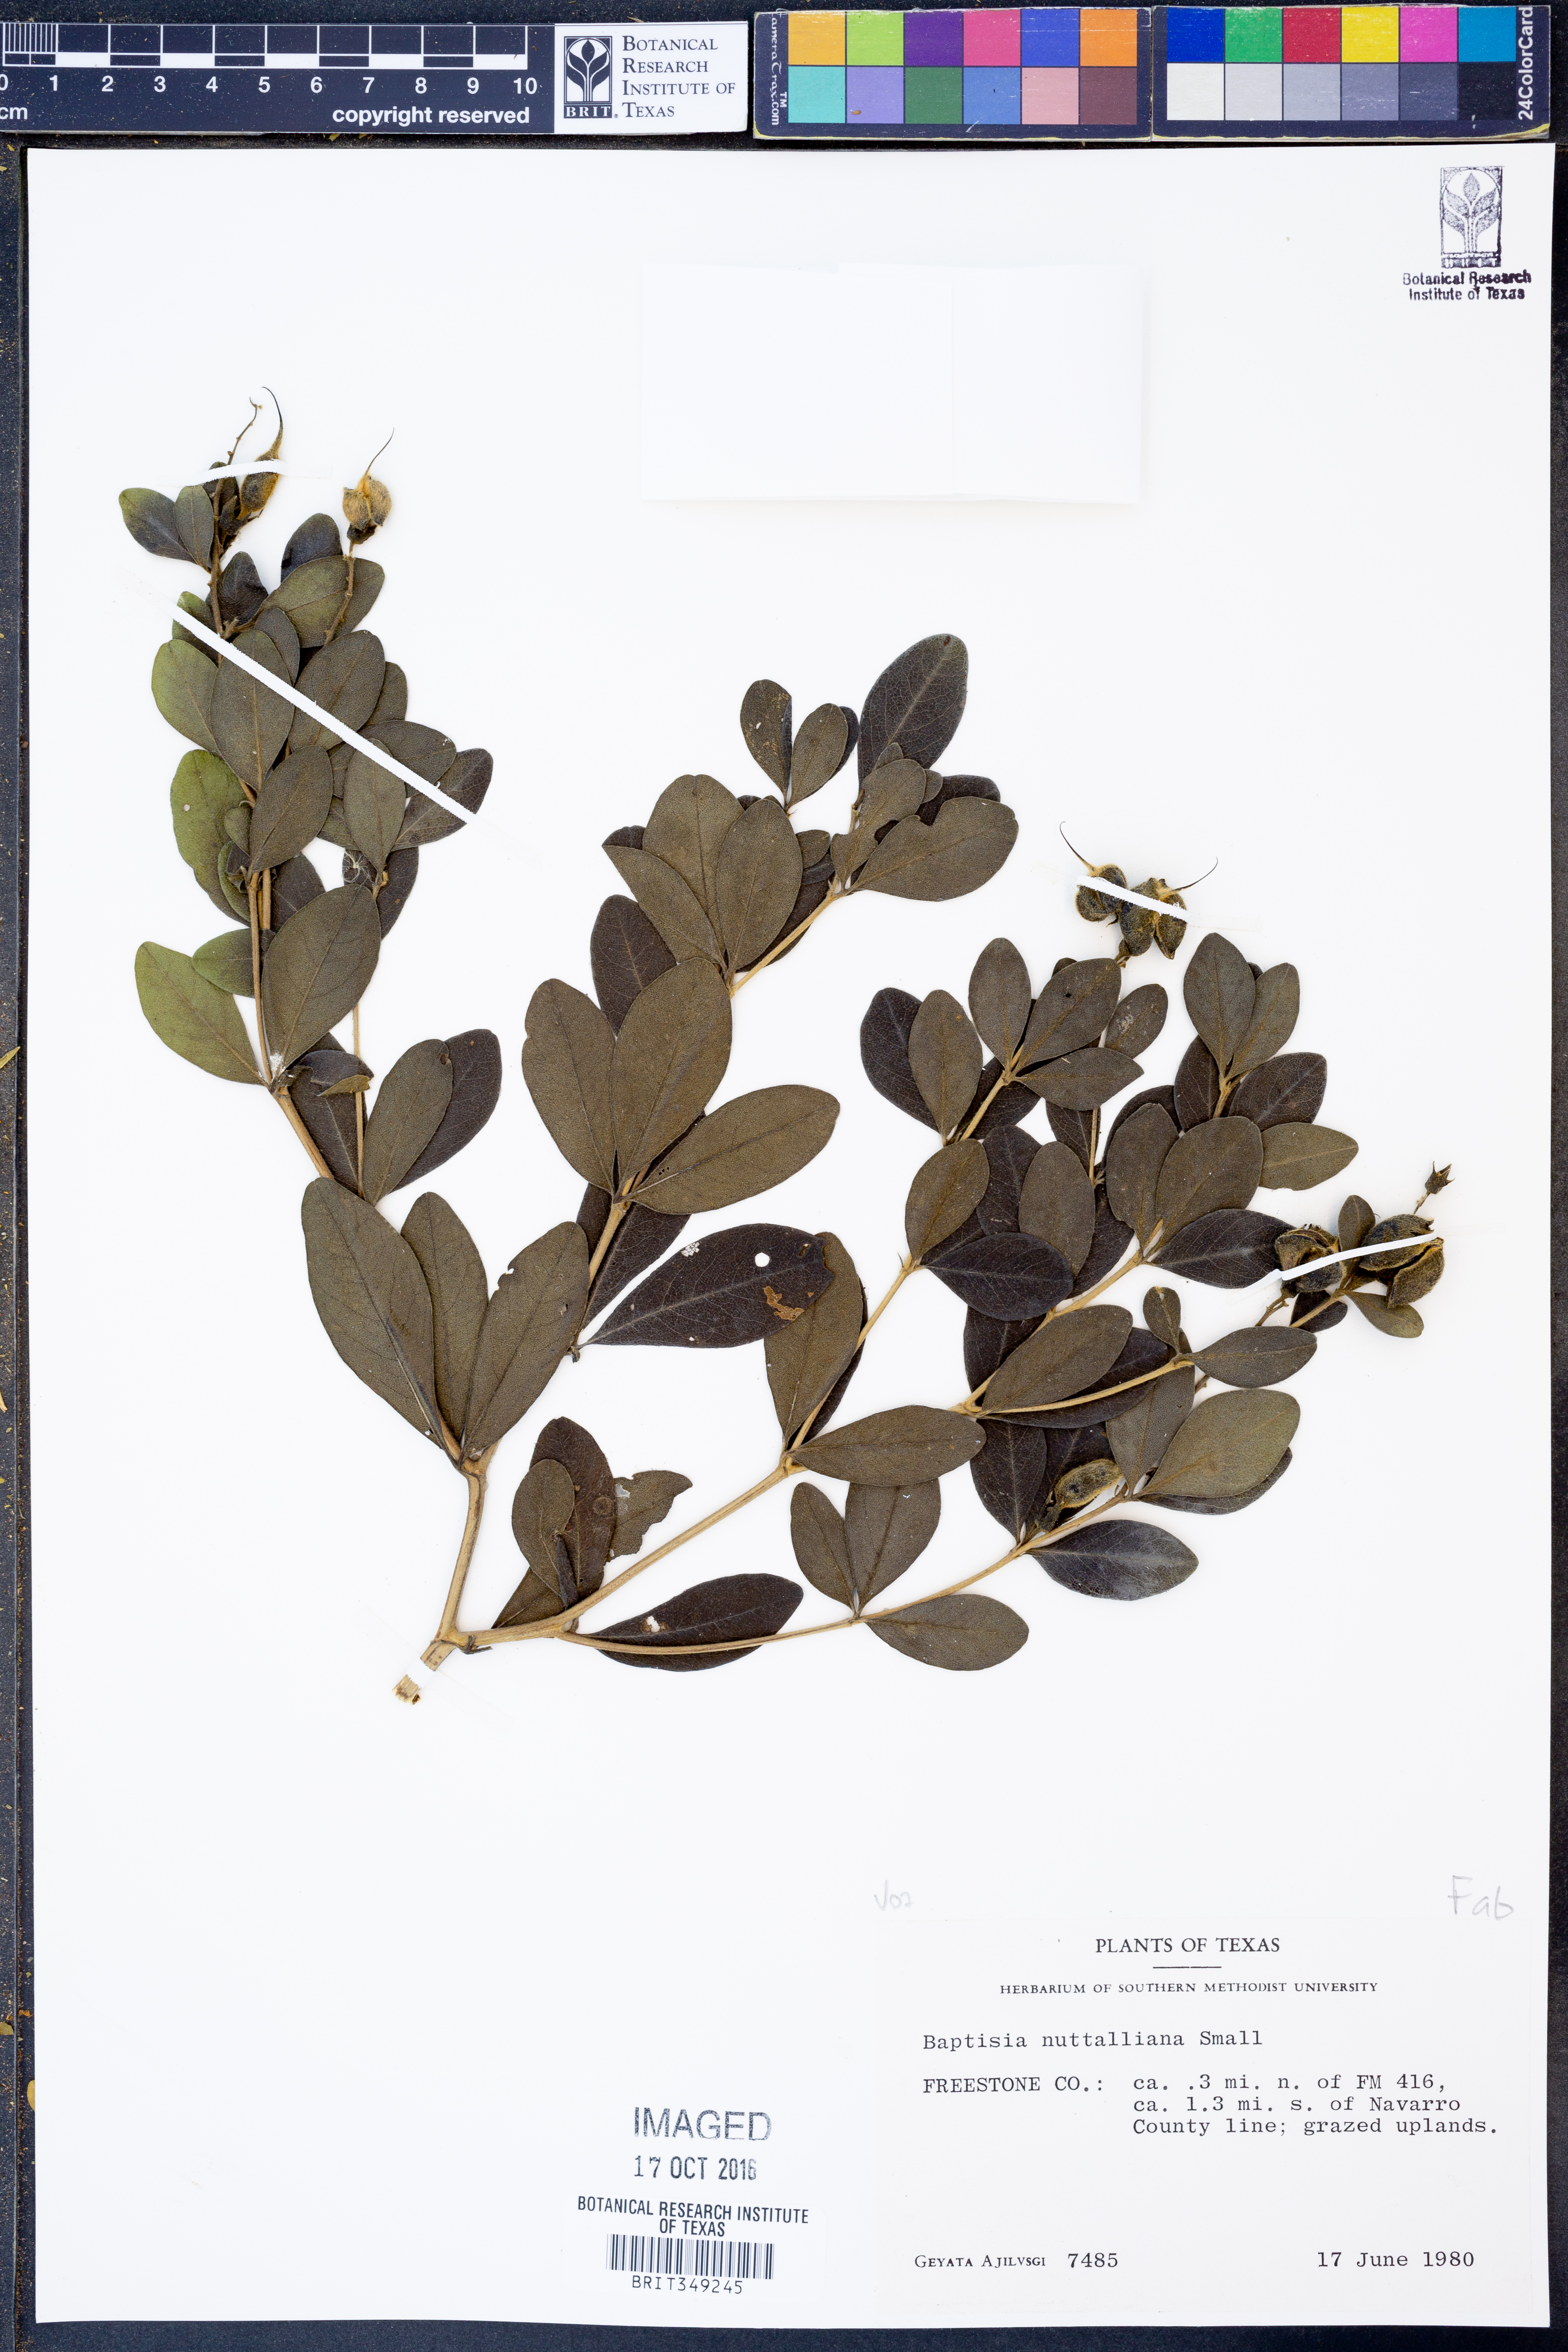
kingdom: Plantae
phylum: Tracheophyta
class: Magnoliopsida
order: Fabales
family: Fabaceae
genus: Baptisia
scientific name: Baptisia nuttalliana
